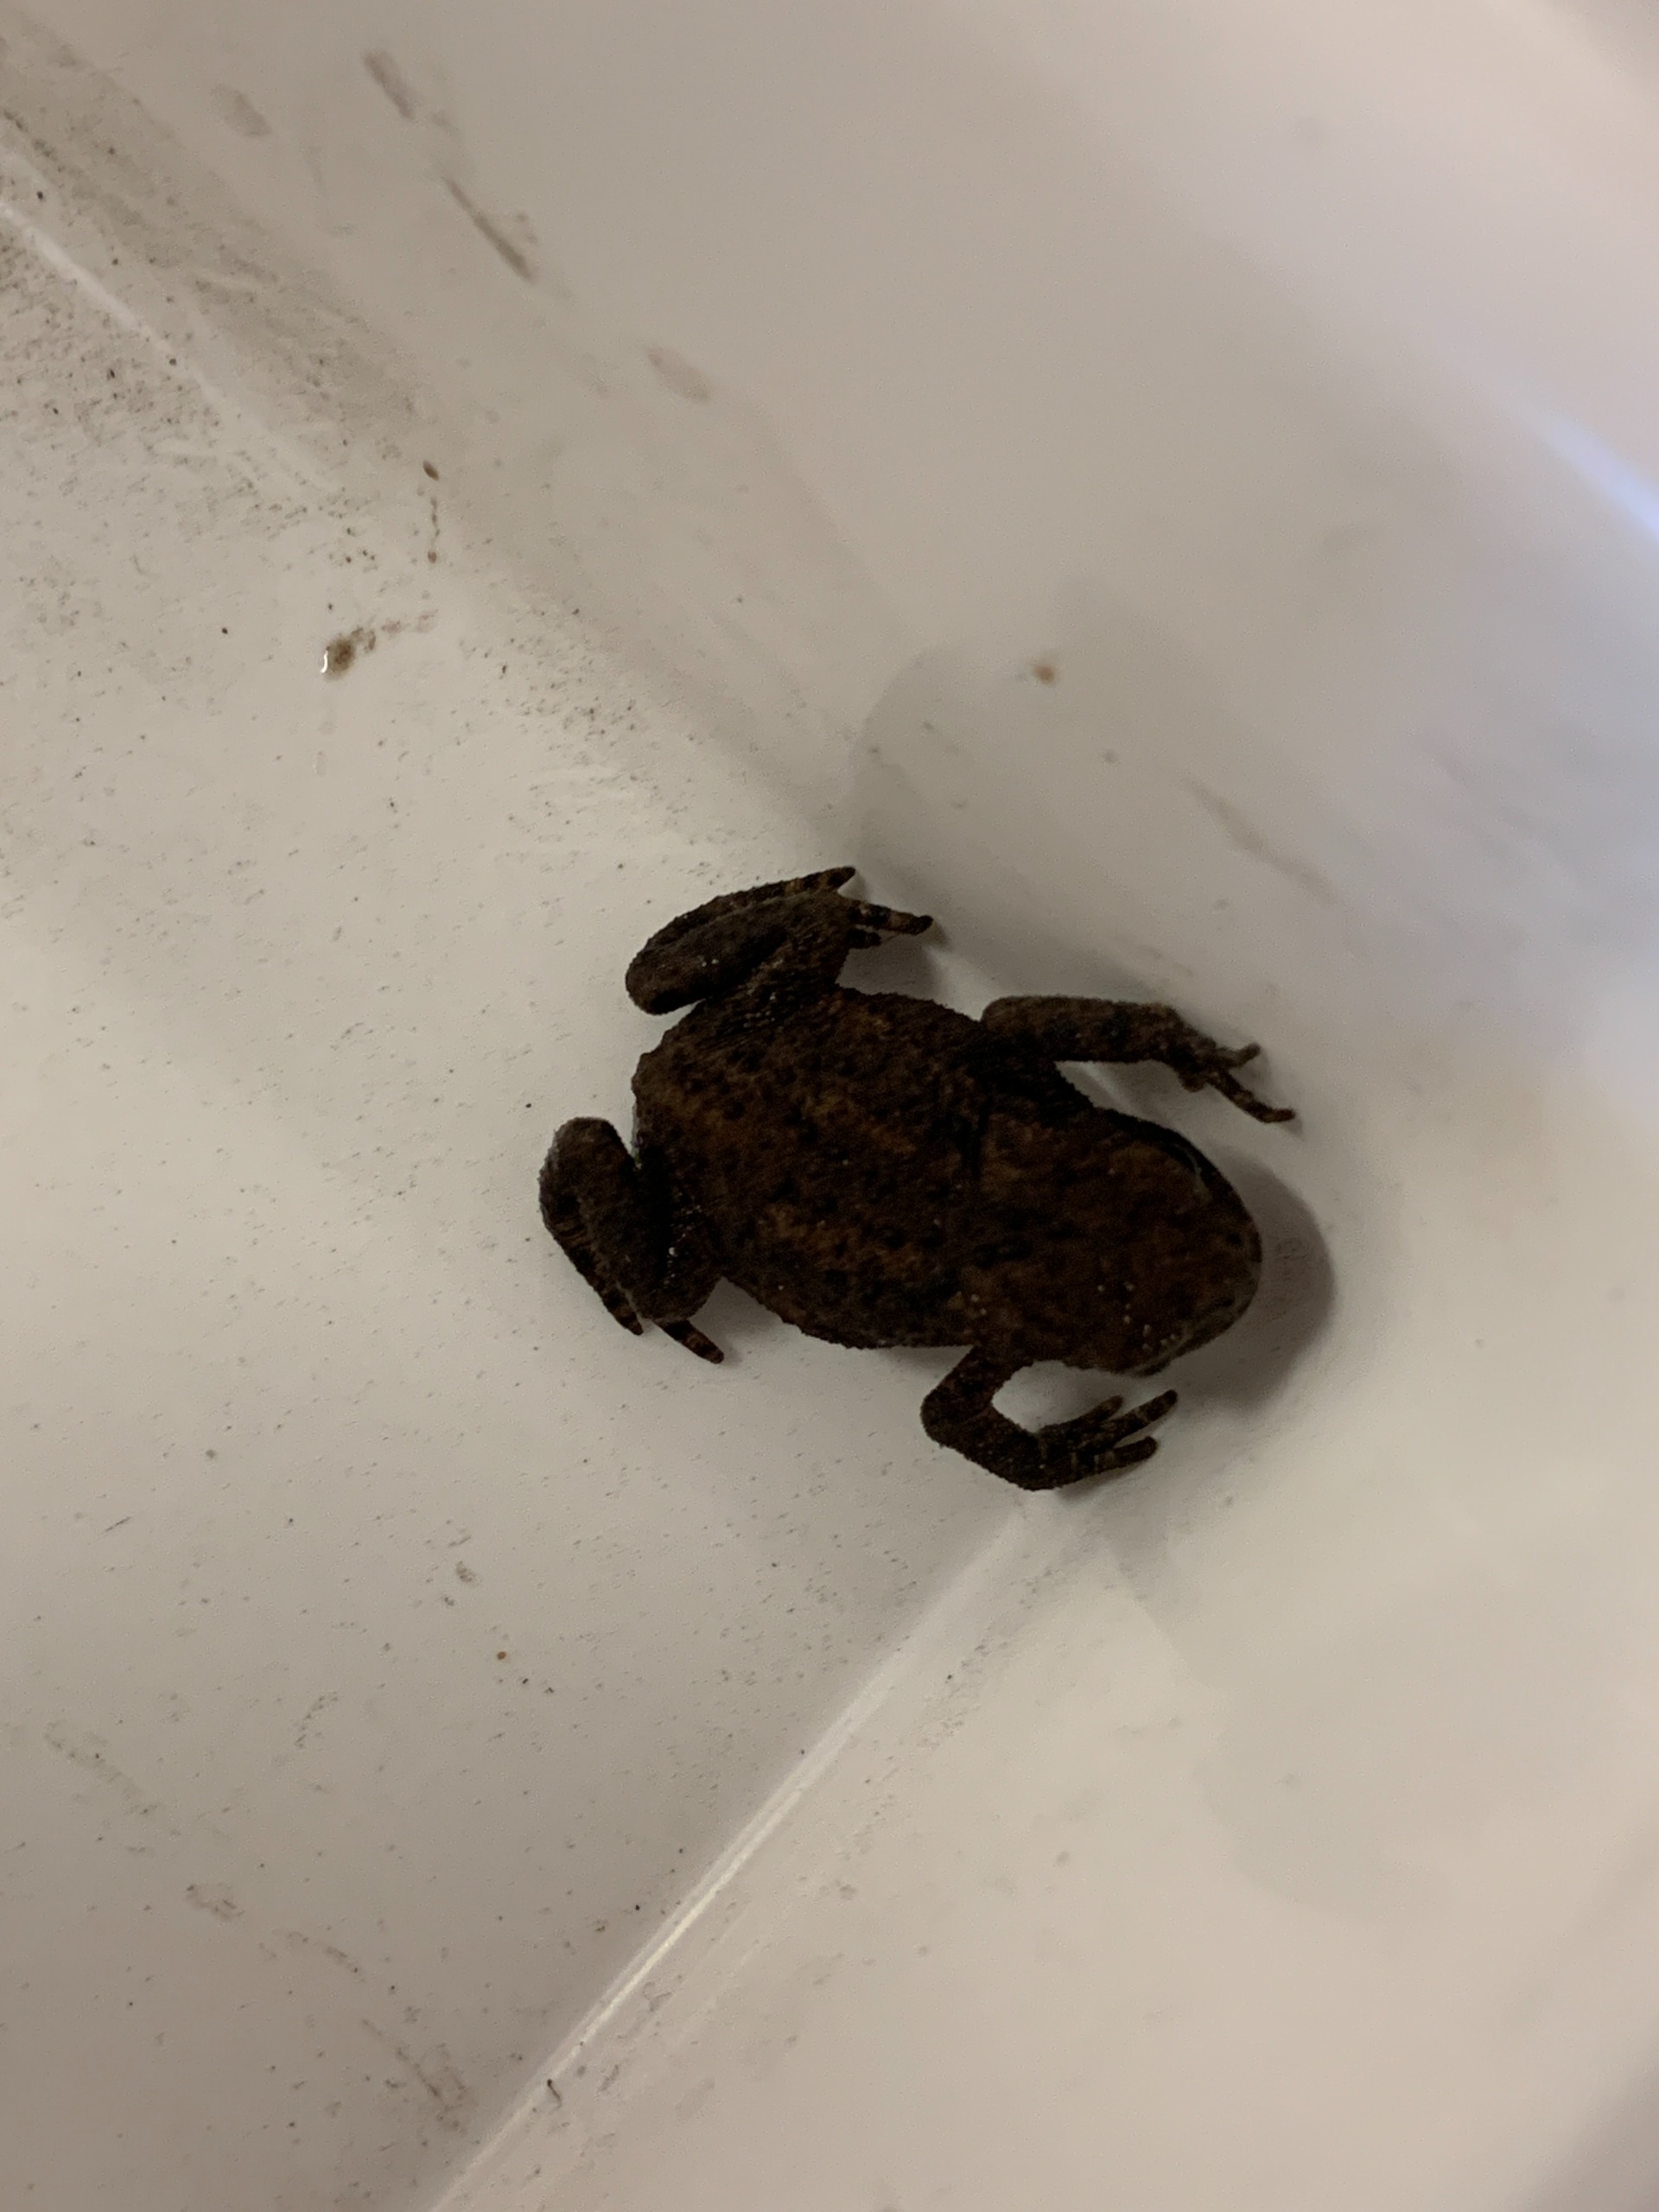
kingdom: Animalia
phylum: Chordata
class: Amphibia
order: Anura
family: Bufonidae
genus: Bufo
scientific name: Bufo bufo
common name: Skrubtudse
